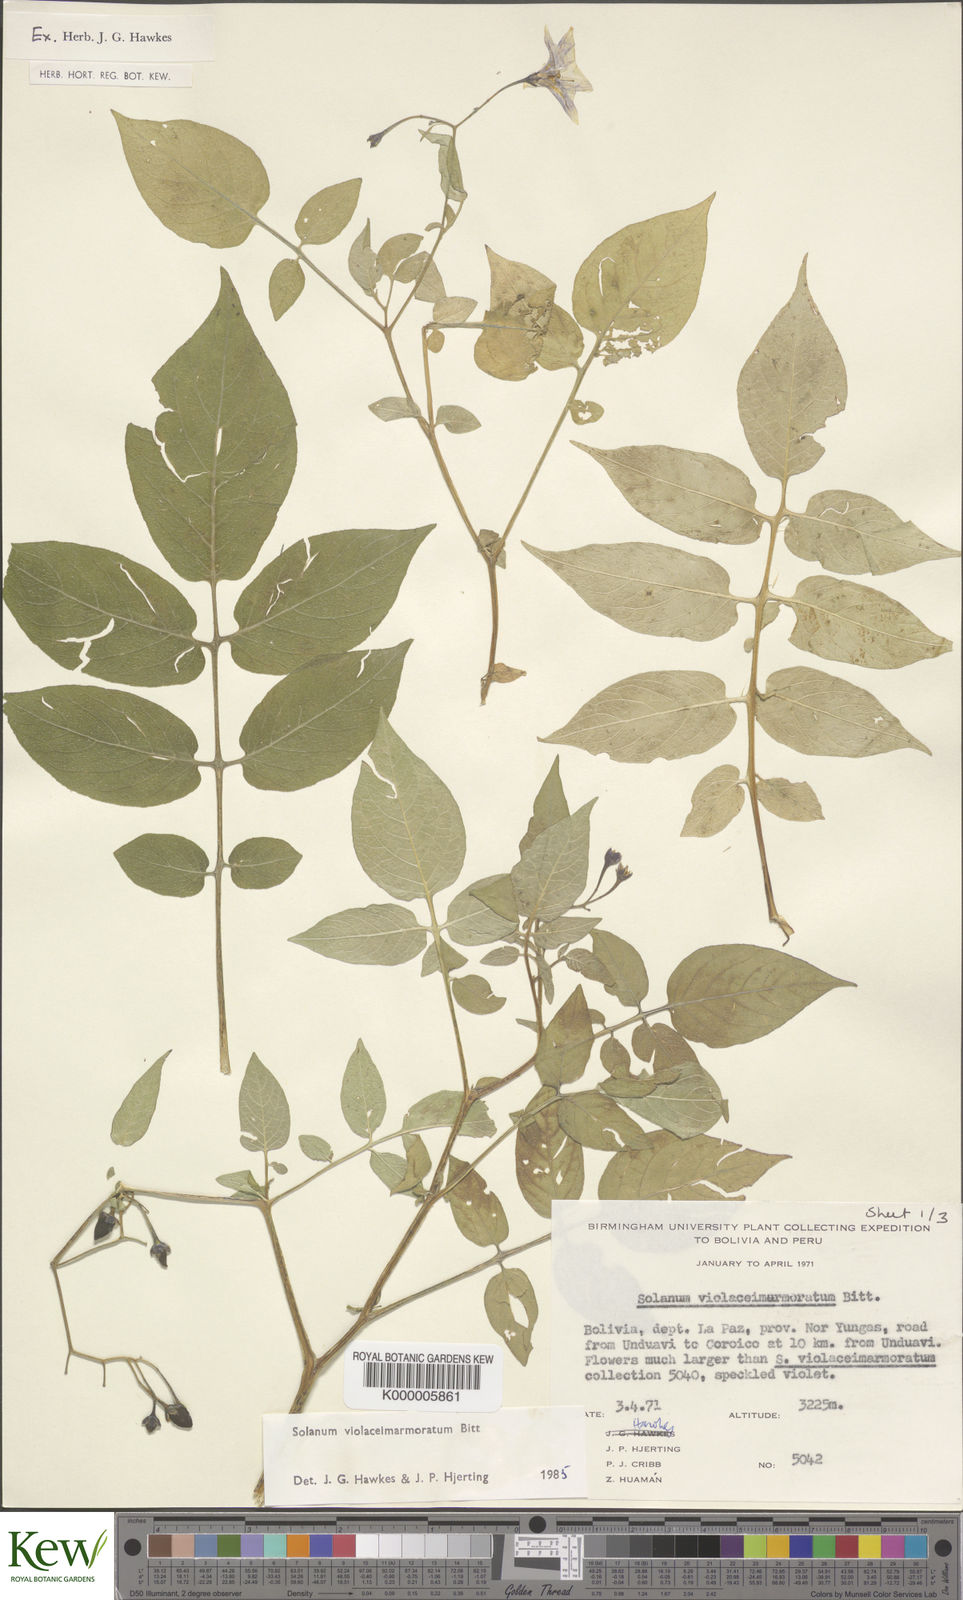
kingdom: Plantae
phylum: Tracheophyta
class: Magnoliopsida
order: Solanales
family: Solanaceae
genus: Solanum
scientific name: Solanum violaceimarmoratum
